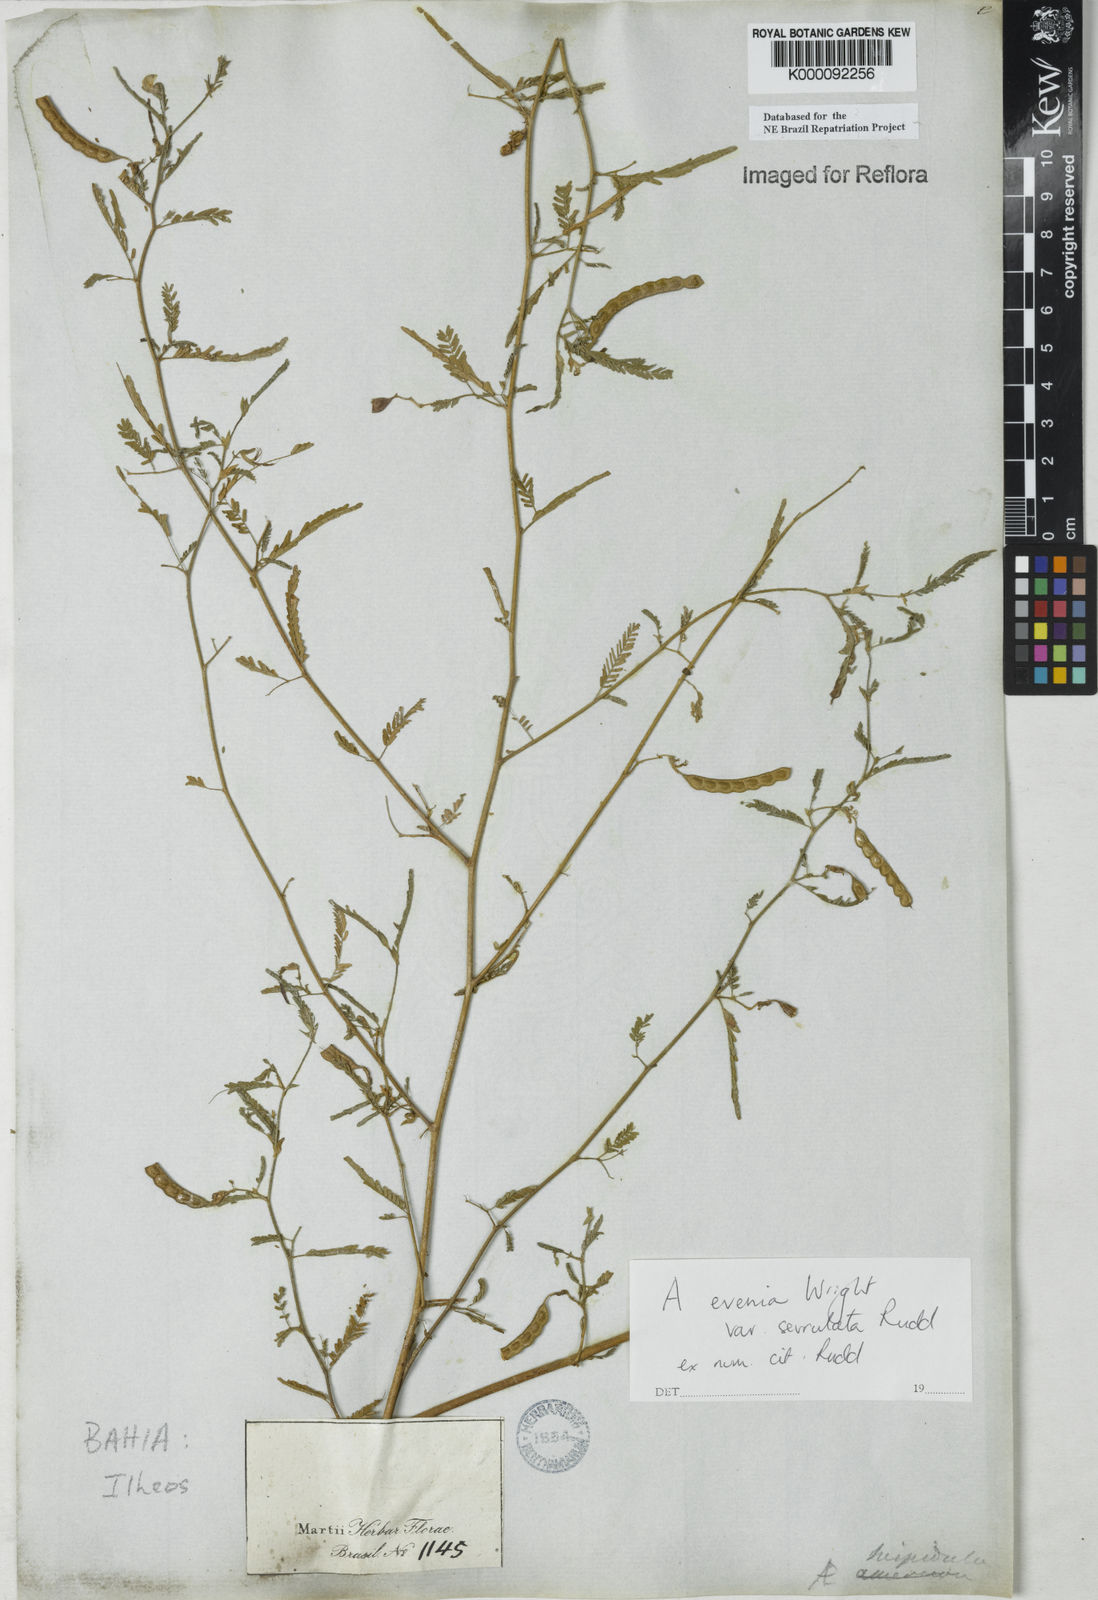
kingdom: Plantae
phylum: Tracheophyta
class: Magnoliopsida
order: Fabales
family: Fabaceae
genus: Aeschynomene
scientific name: Aeschynomene evenia
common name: Shrubby jointvetch
